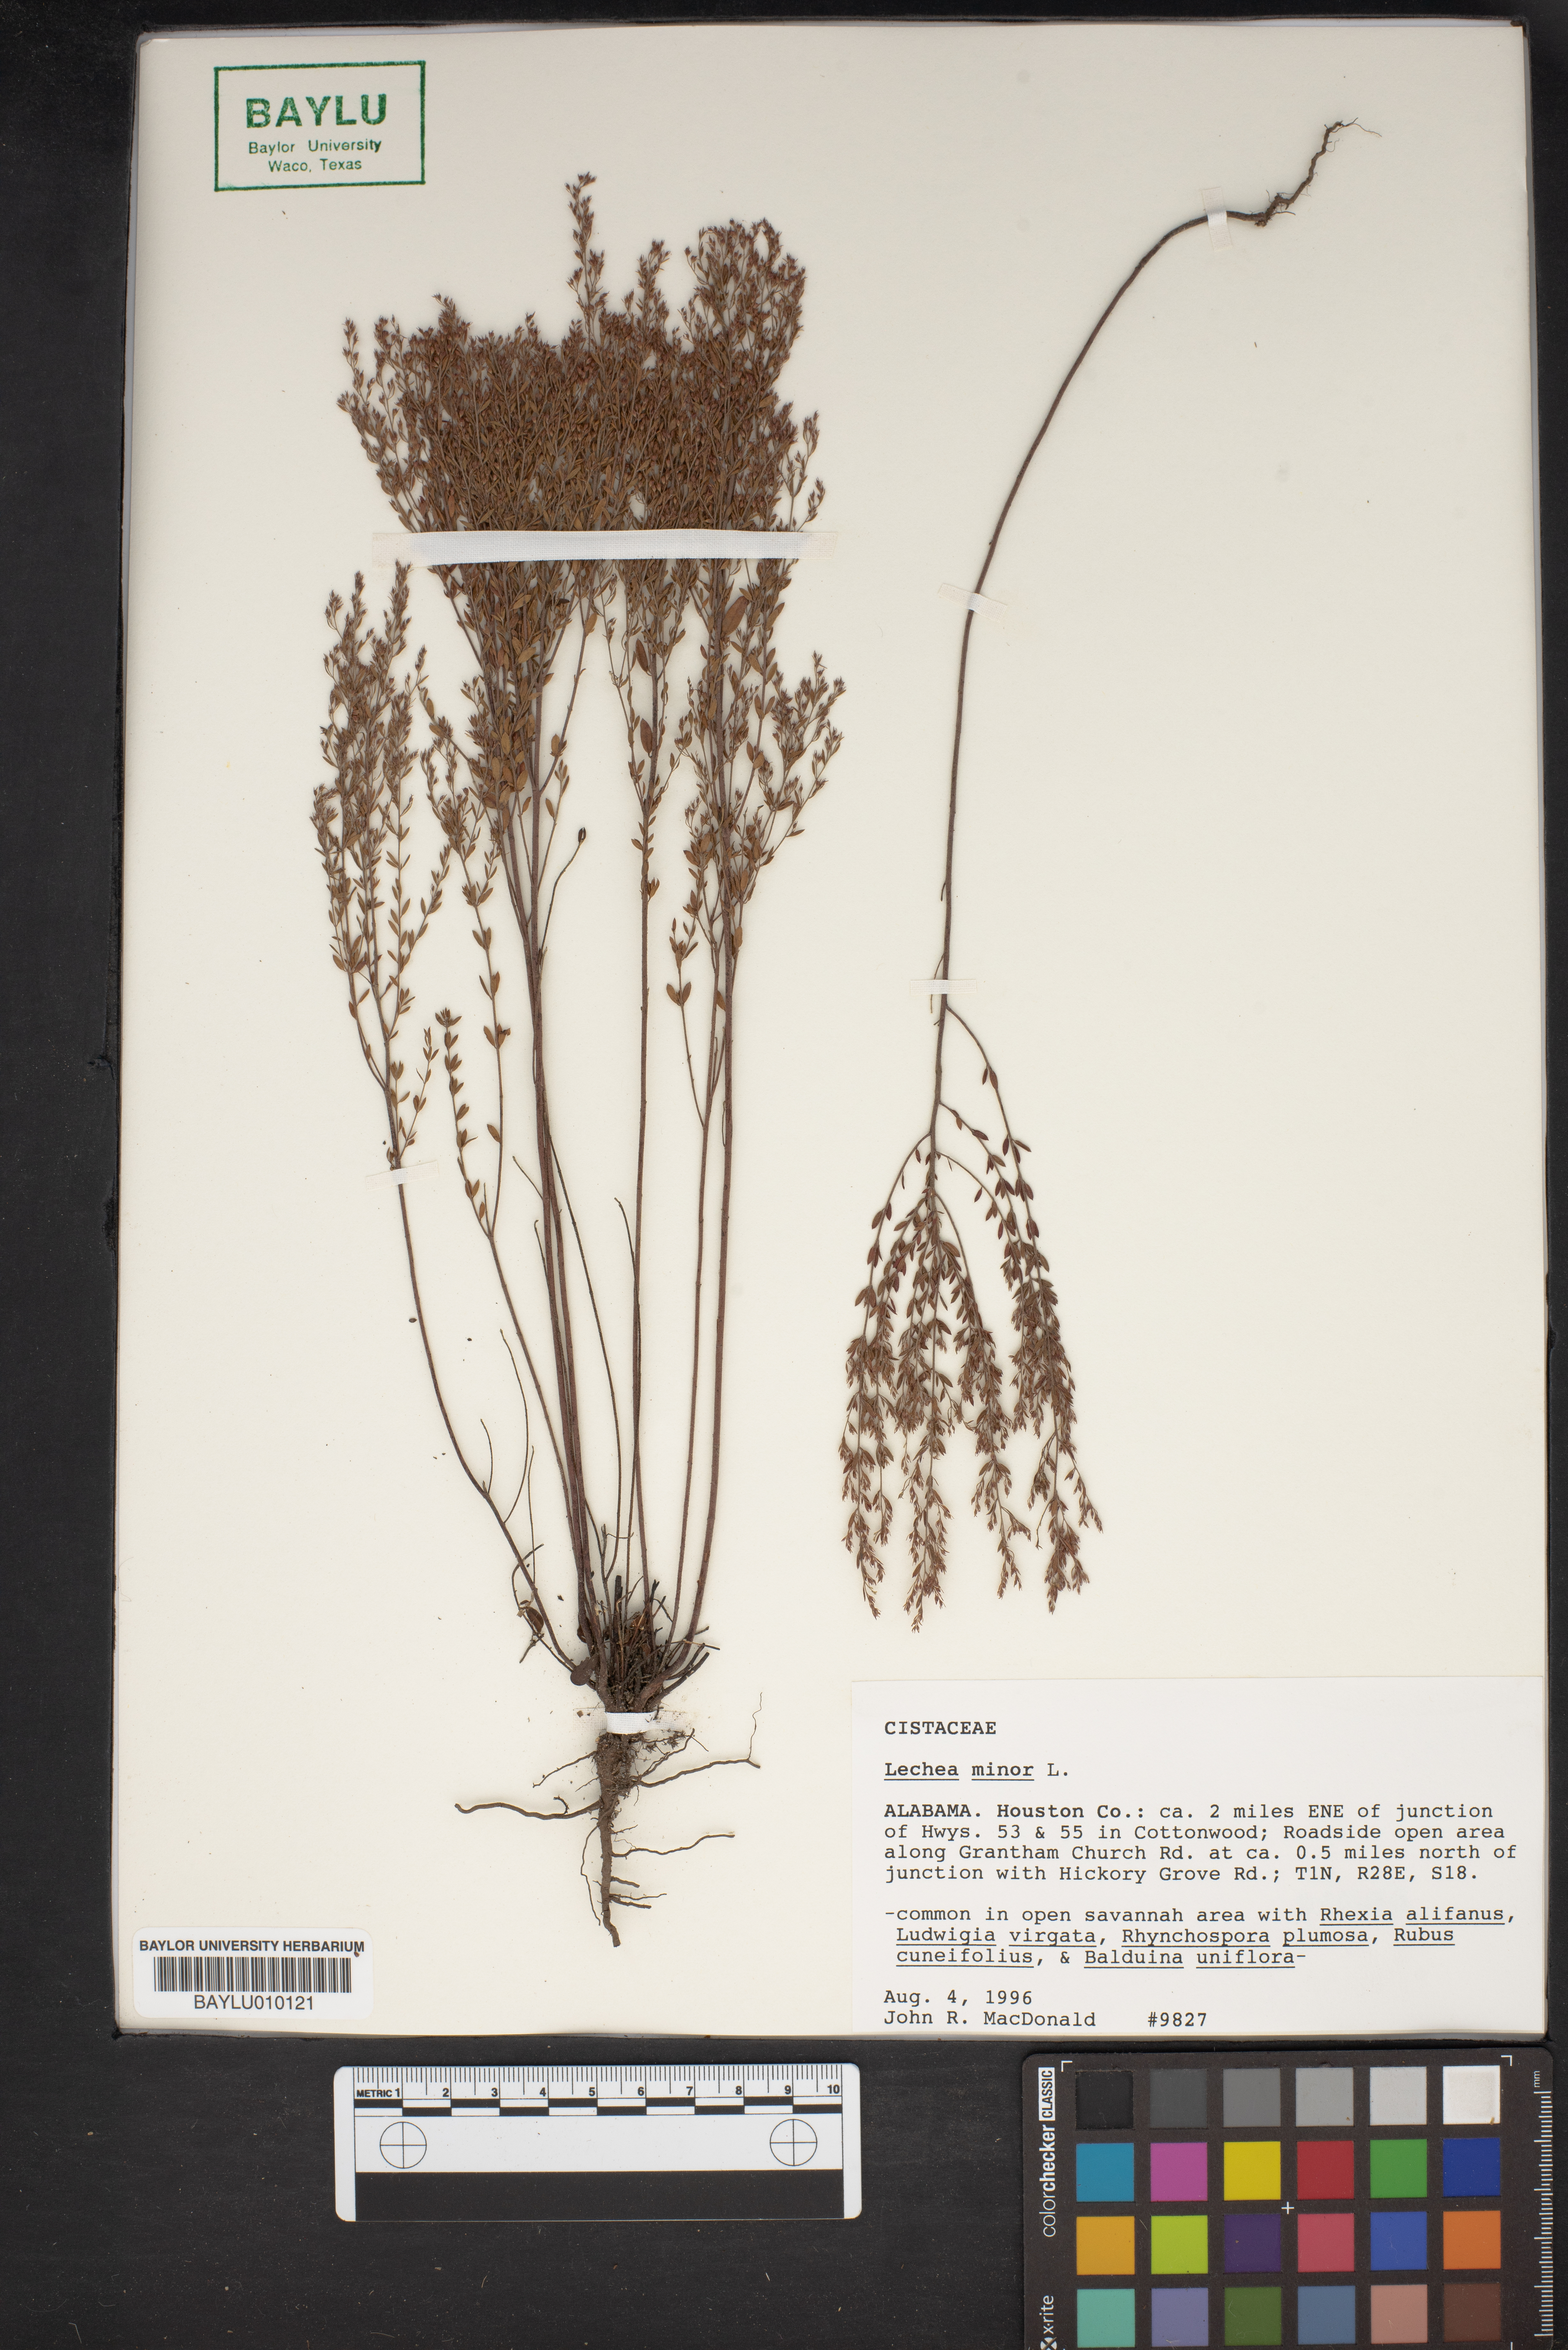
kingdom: Plantae
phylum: Tracheophyta
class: Magnoliopsida
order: Malvales
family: Cistaceae
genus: Lechea
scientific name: Lechea minor
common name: Thyme-leaf pinweed
